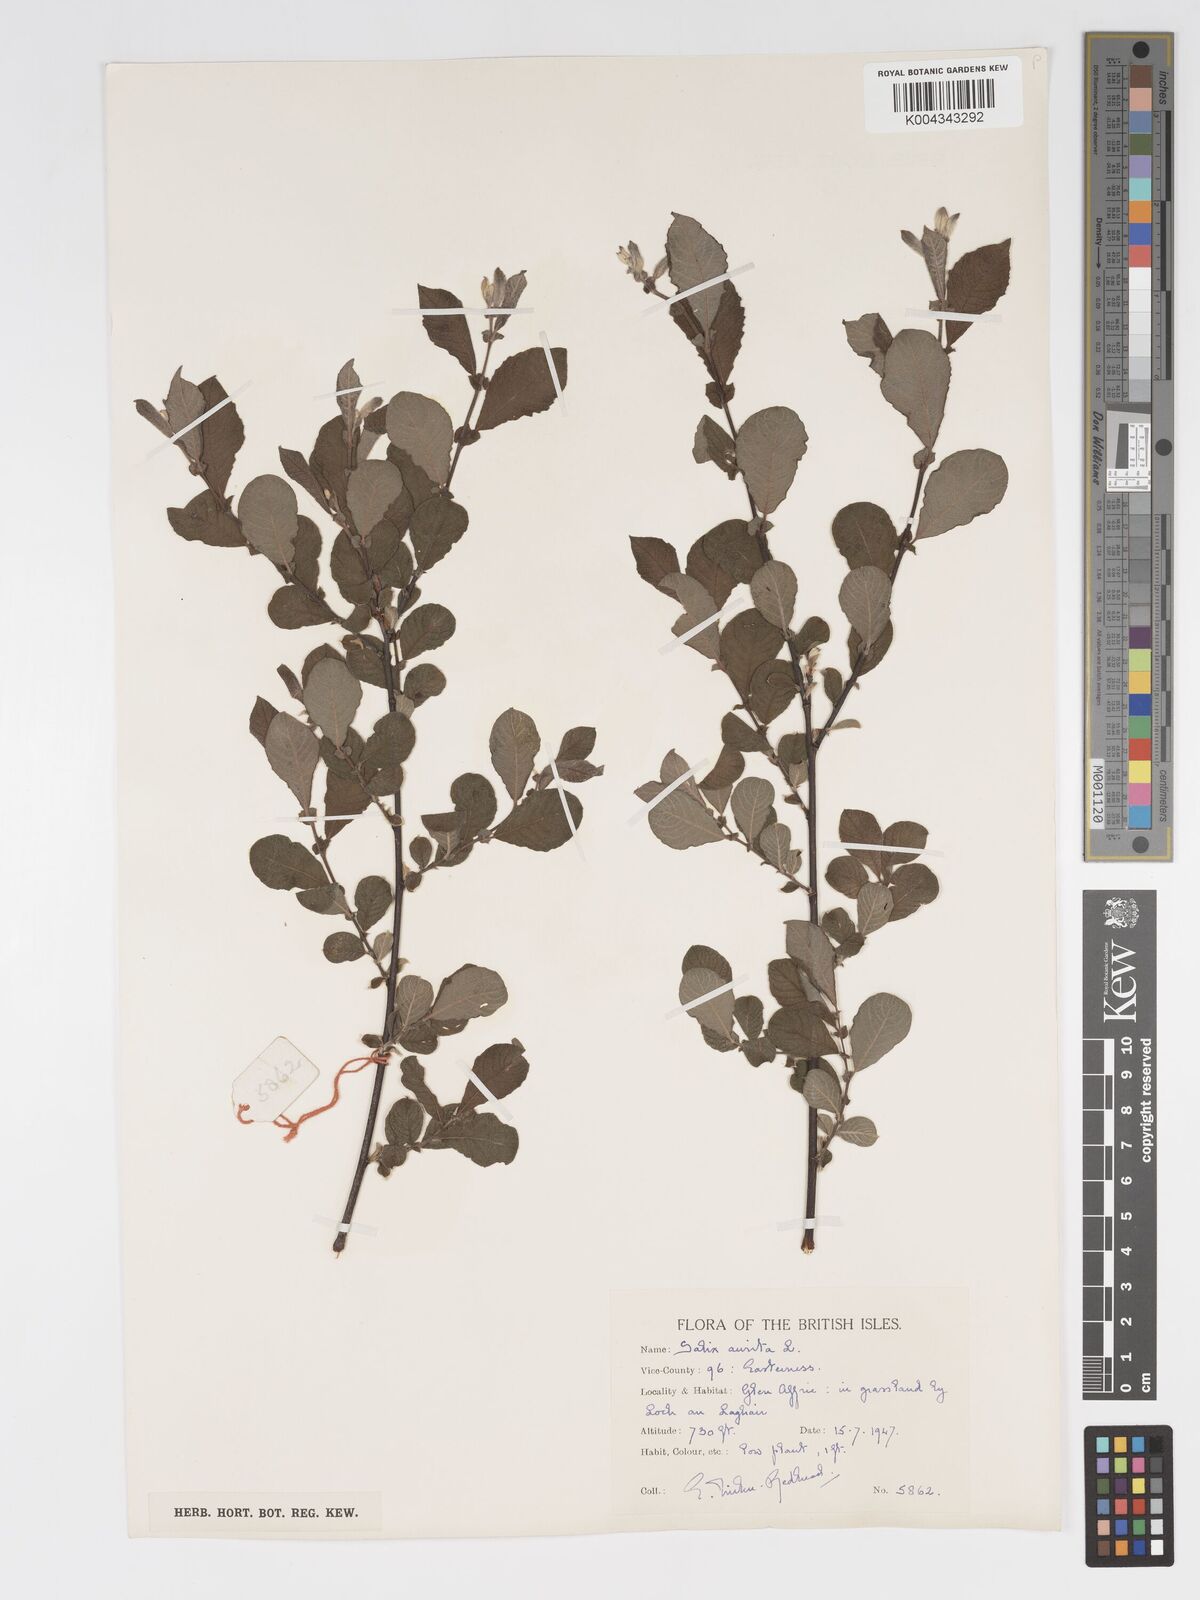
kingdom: Plantae
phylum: Tracheophyta
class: Magnoliopsida
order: Malpighiales
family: Salicaceae
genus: Salix
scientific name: Salix aurita
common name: Eared willow
